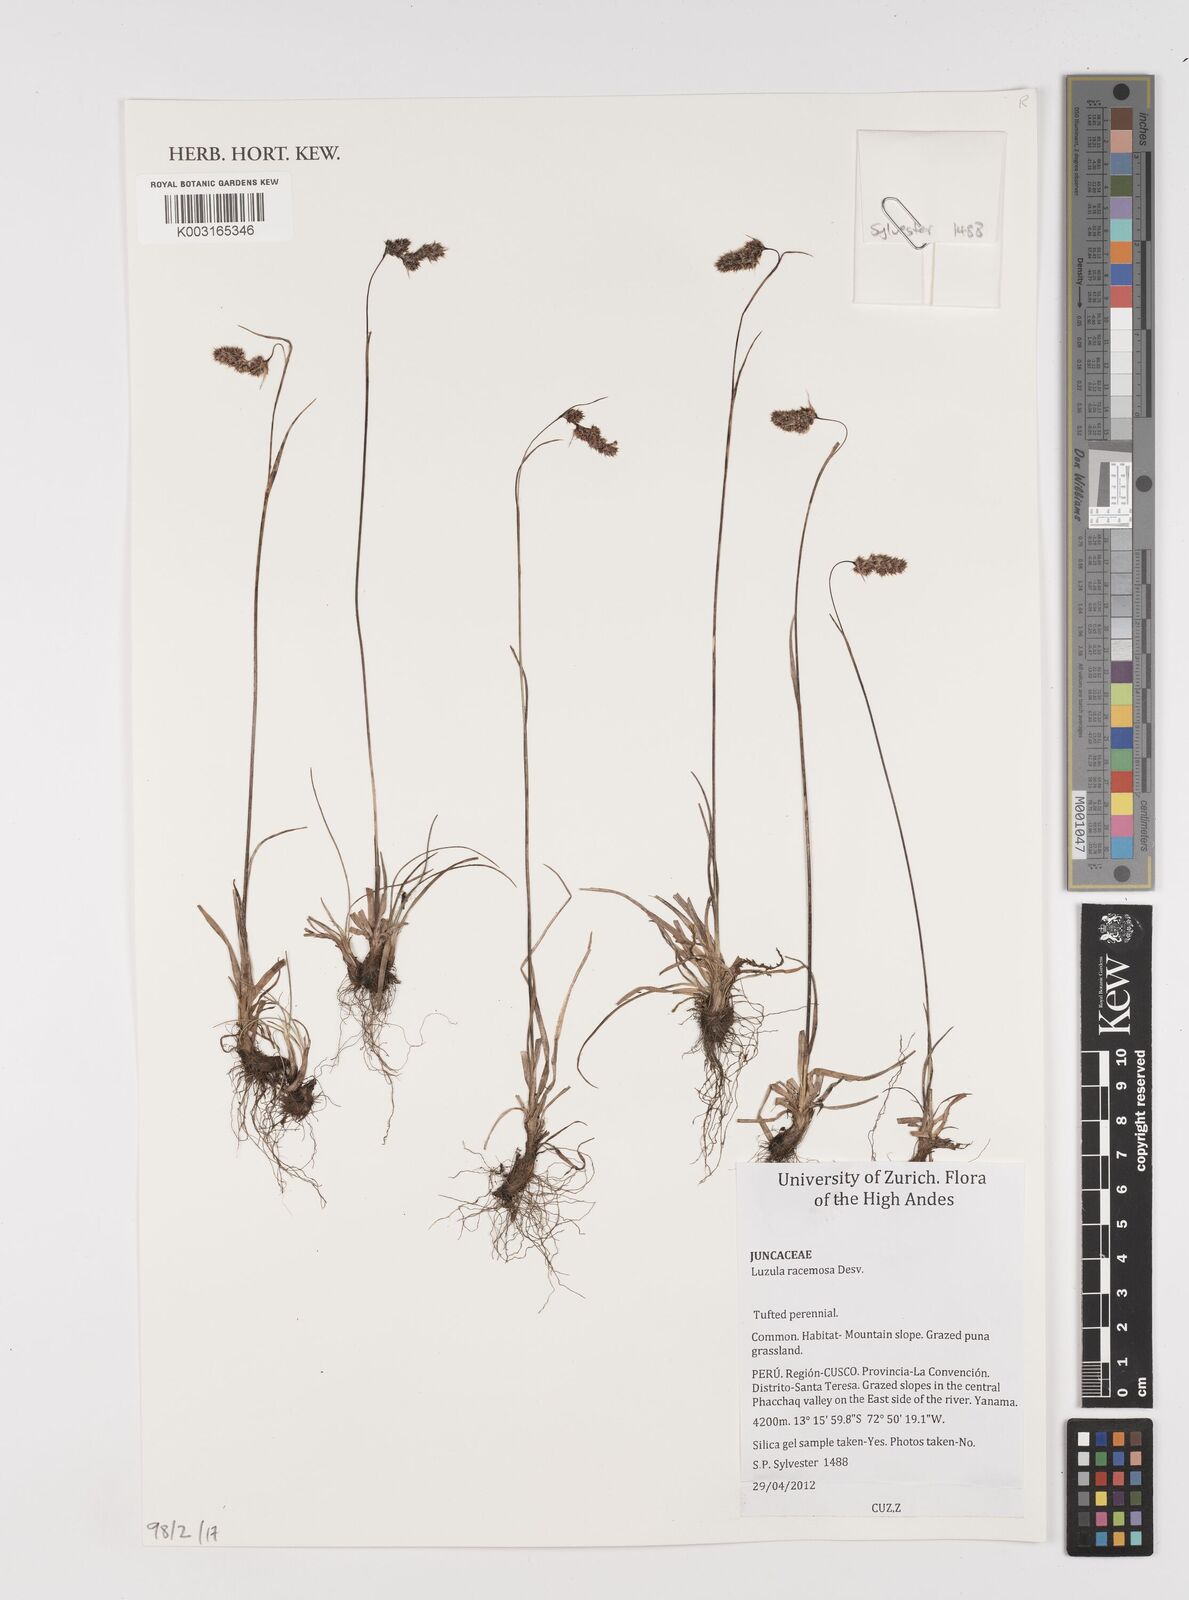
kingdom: Plantae
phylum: Tracheophyta
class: Liliopsida
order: Poales
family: Juncaceae
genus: Luzula
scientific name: Luzula racemosa
